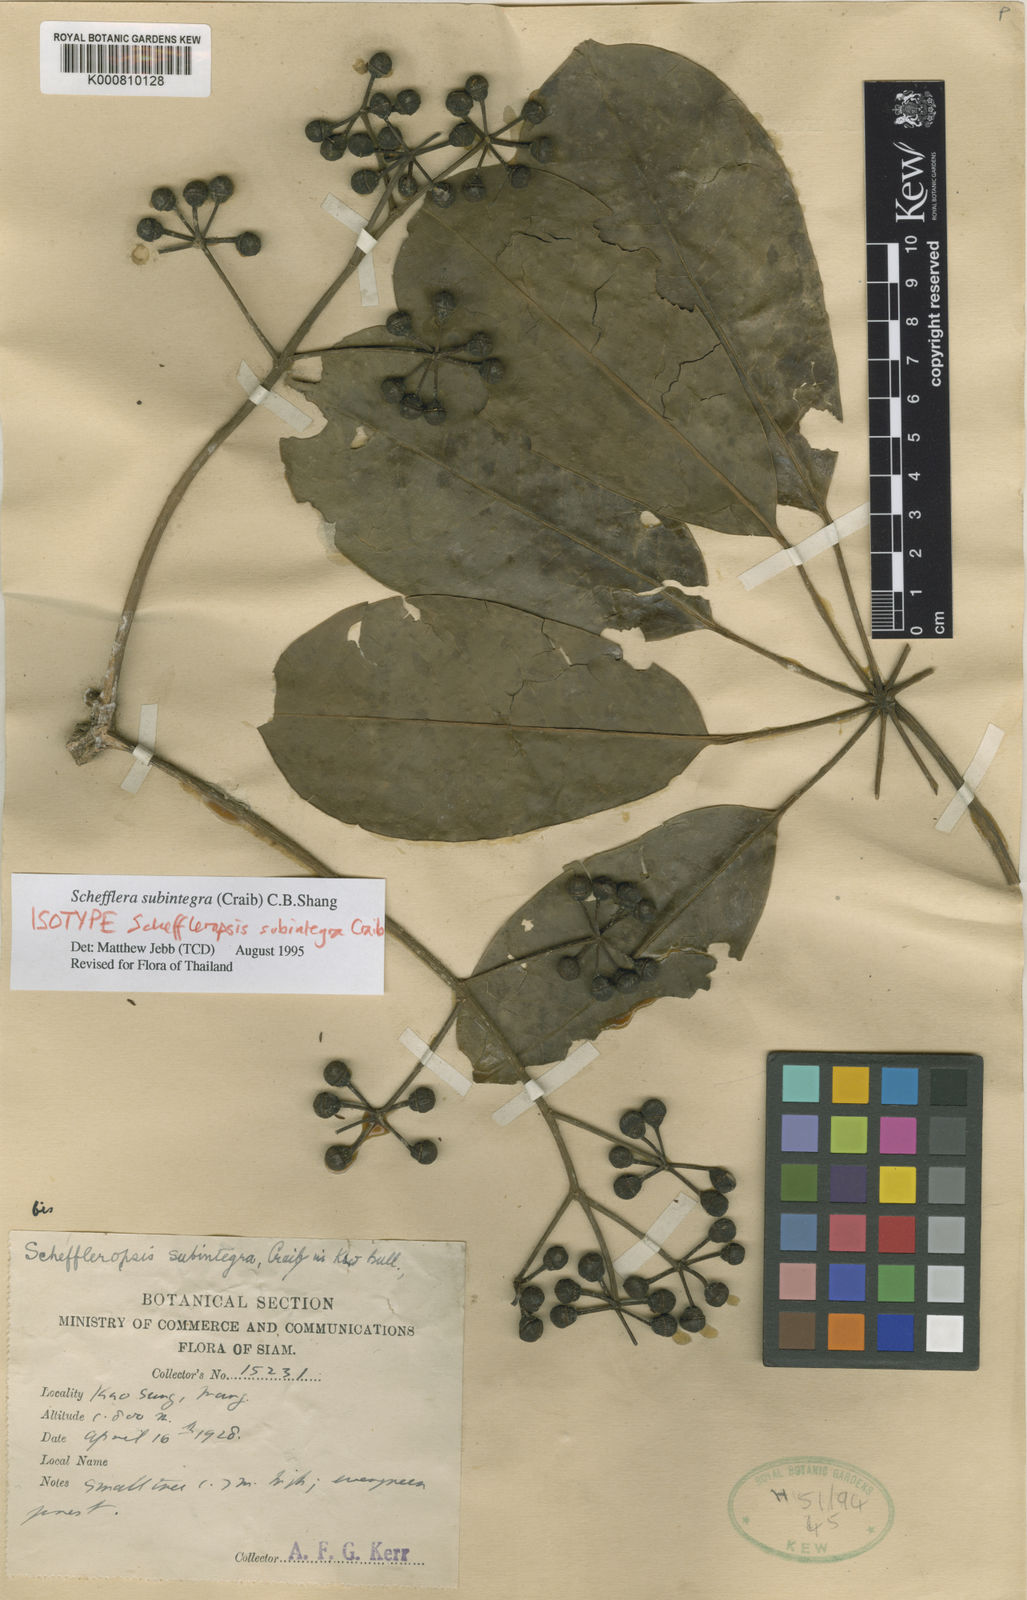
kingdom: Plantae
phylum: Tracheophyta
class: Magnoliopsida
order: Apiales
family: Araliaceae
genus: Heptapleurum
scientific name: Heptapleurum subintegrum
